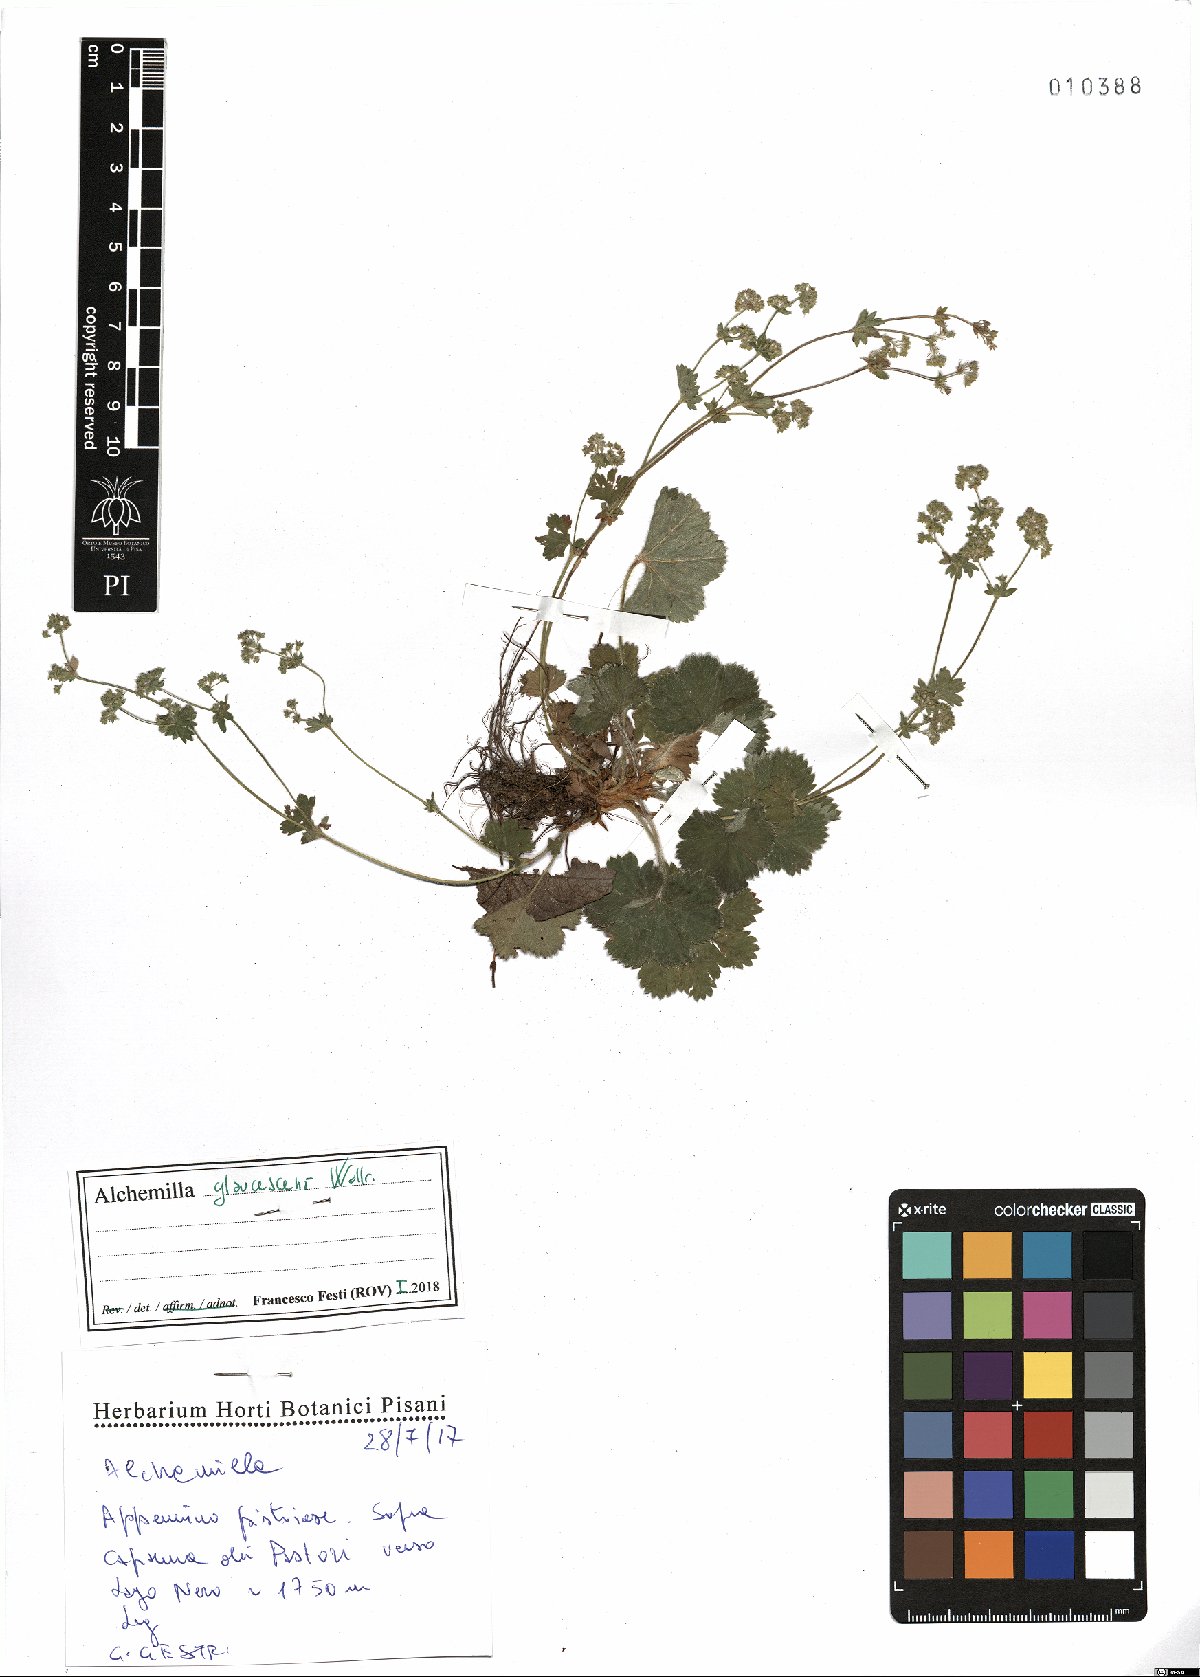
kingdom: Plantae
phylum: Tracheophyta
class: Magnoliopsida
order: Rosales
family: Rosaceae
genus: Alchemilla
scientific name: Alchemilla glaucescens
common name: Silky lady's mantle
